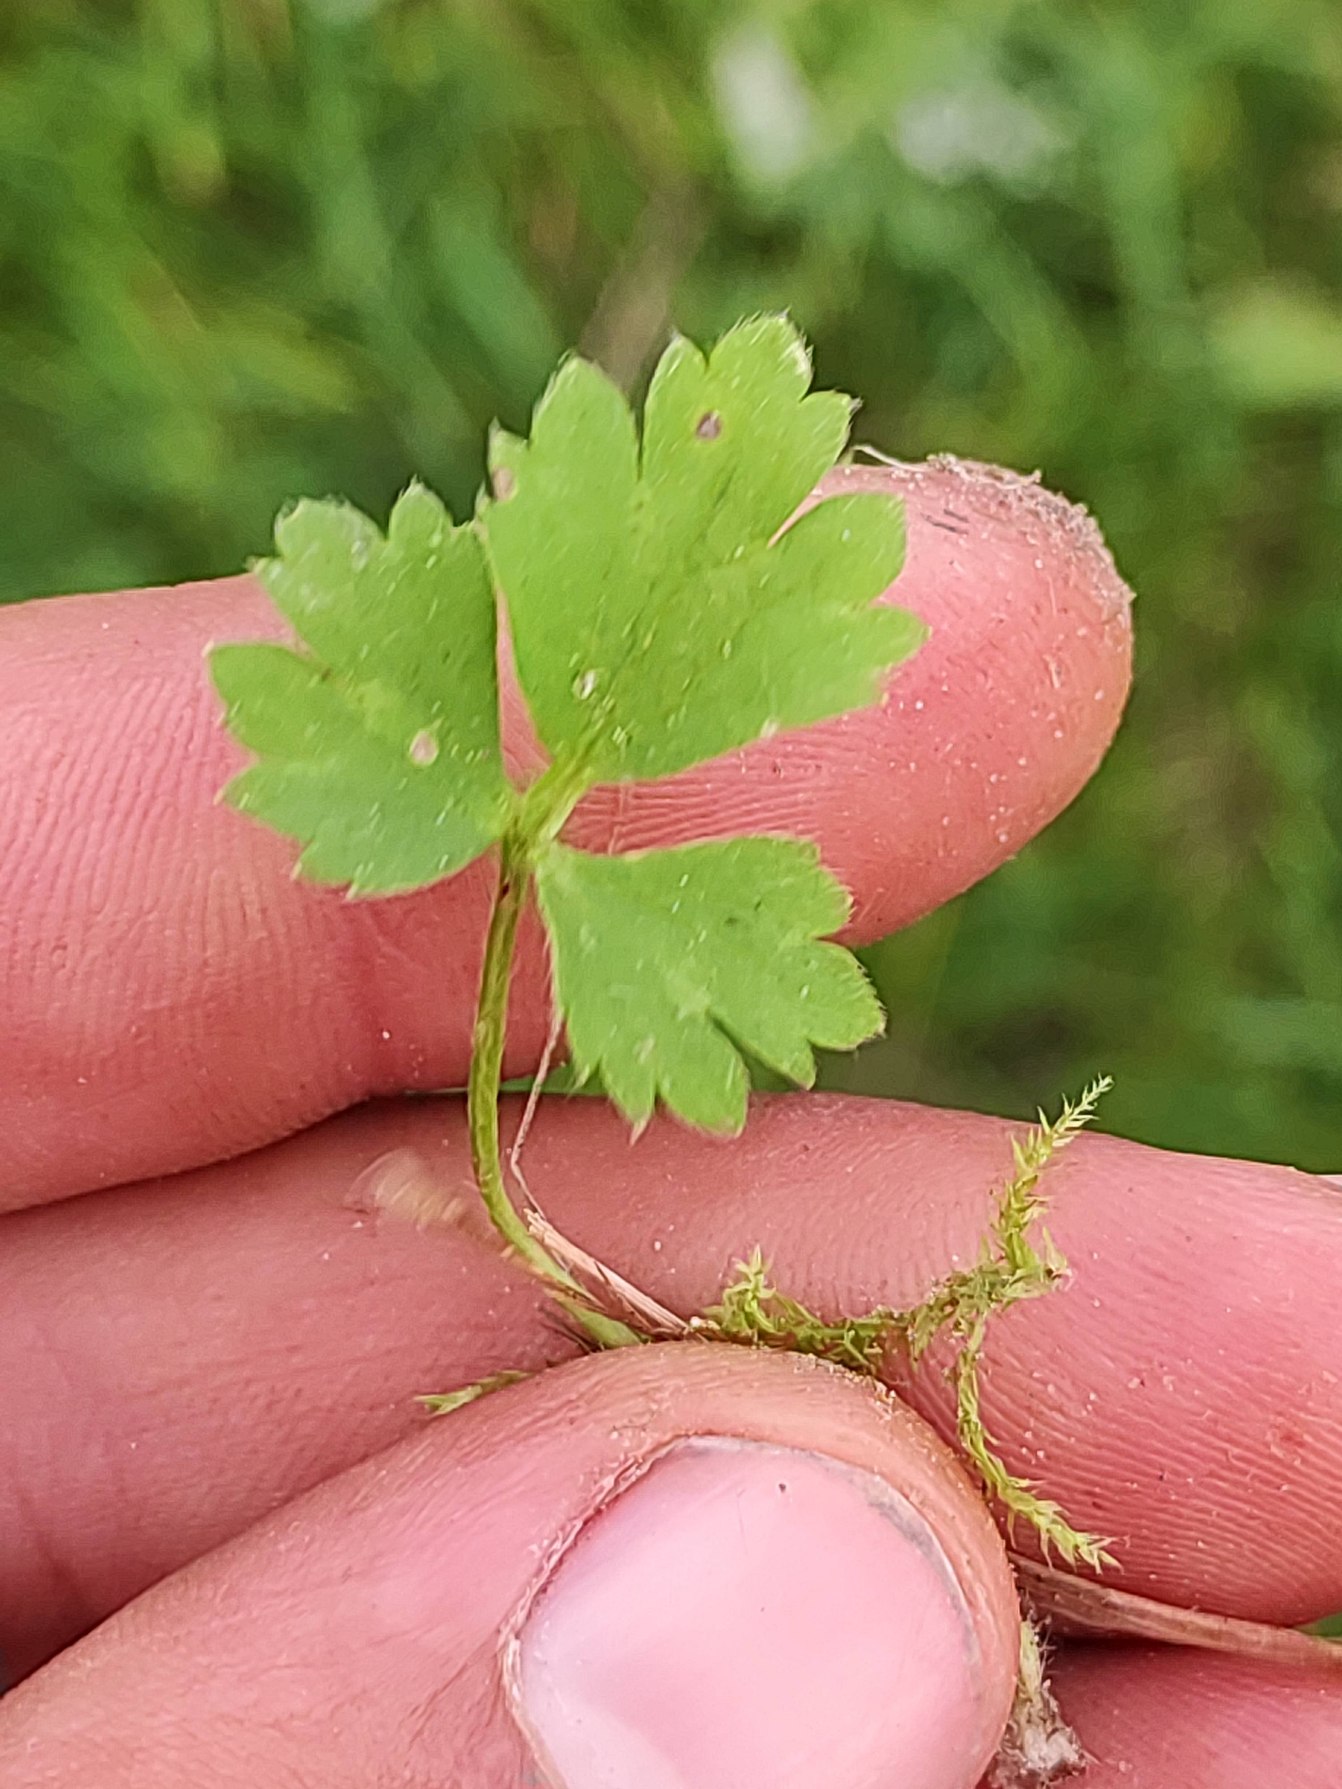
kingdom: Plantae
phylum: Tracheophyta
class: Magnoliopsida
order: Ranunculales
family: Ranunculaceae
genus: Ranunculus
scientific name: Ranunculus repens
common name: Lav ranunkel
